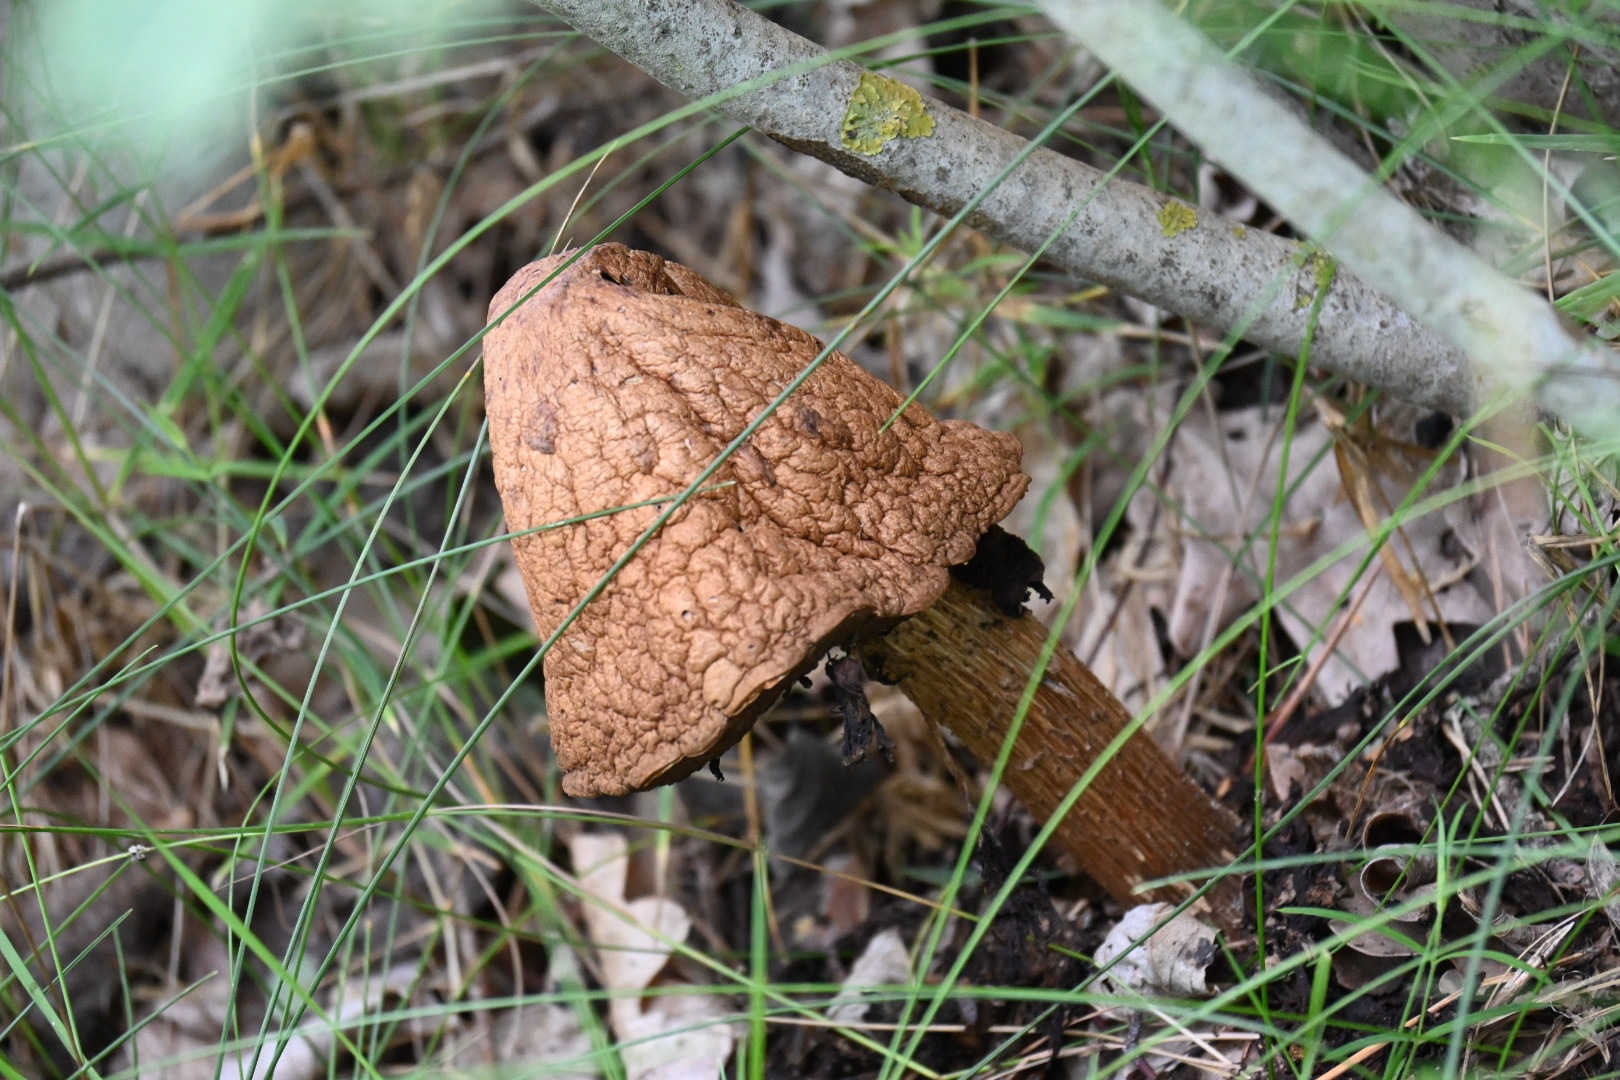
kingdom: Fungi
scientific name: Fungi
